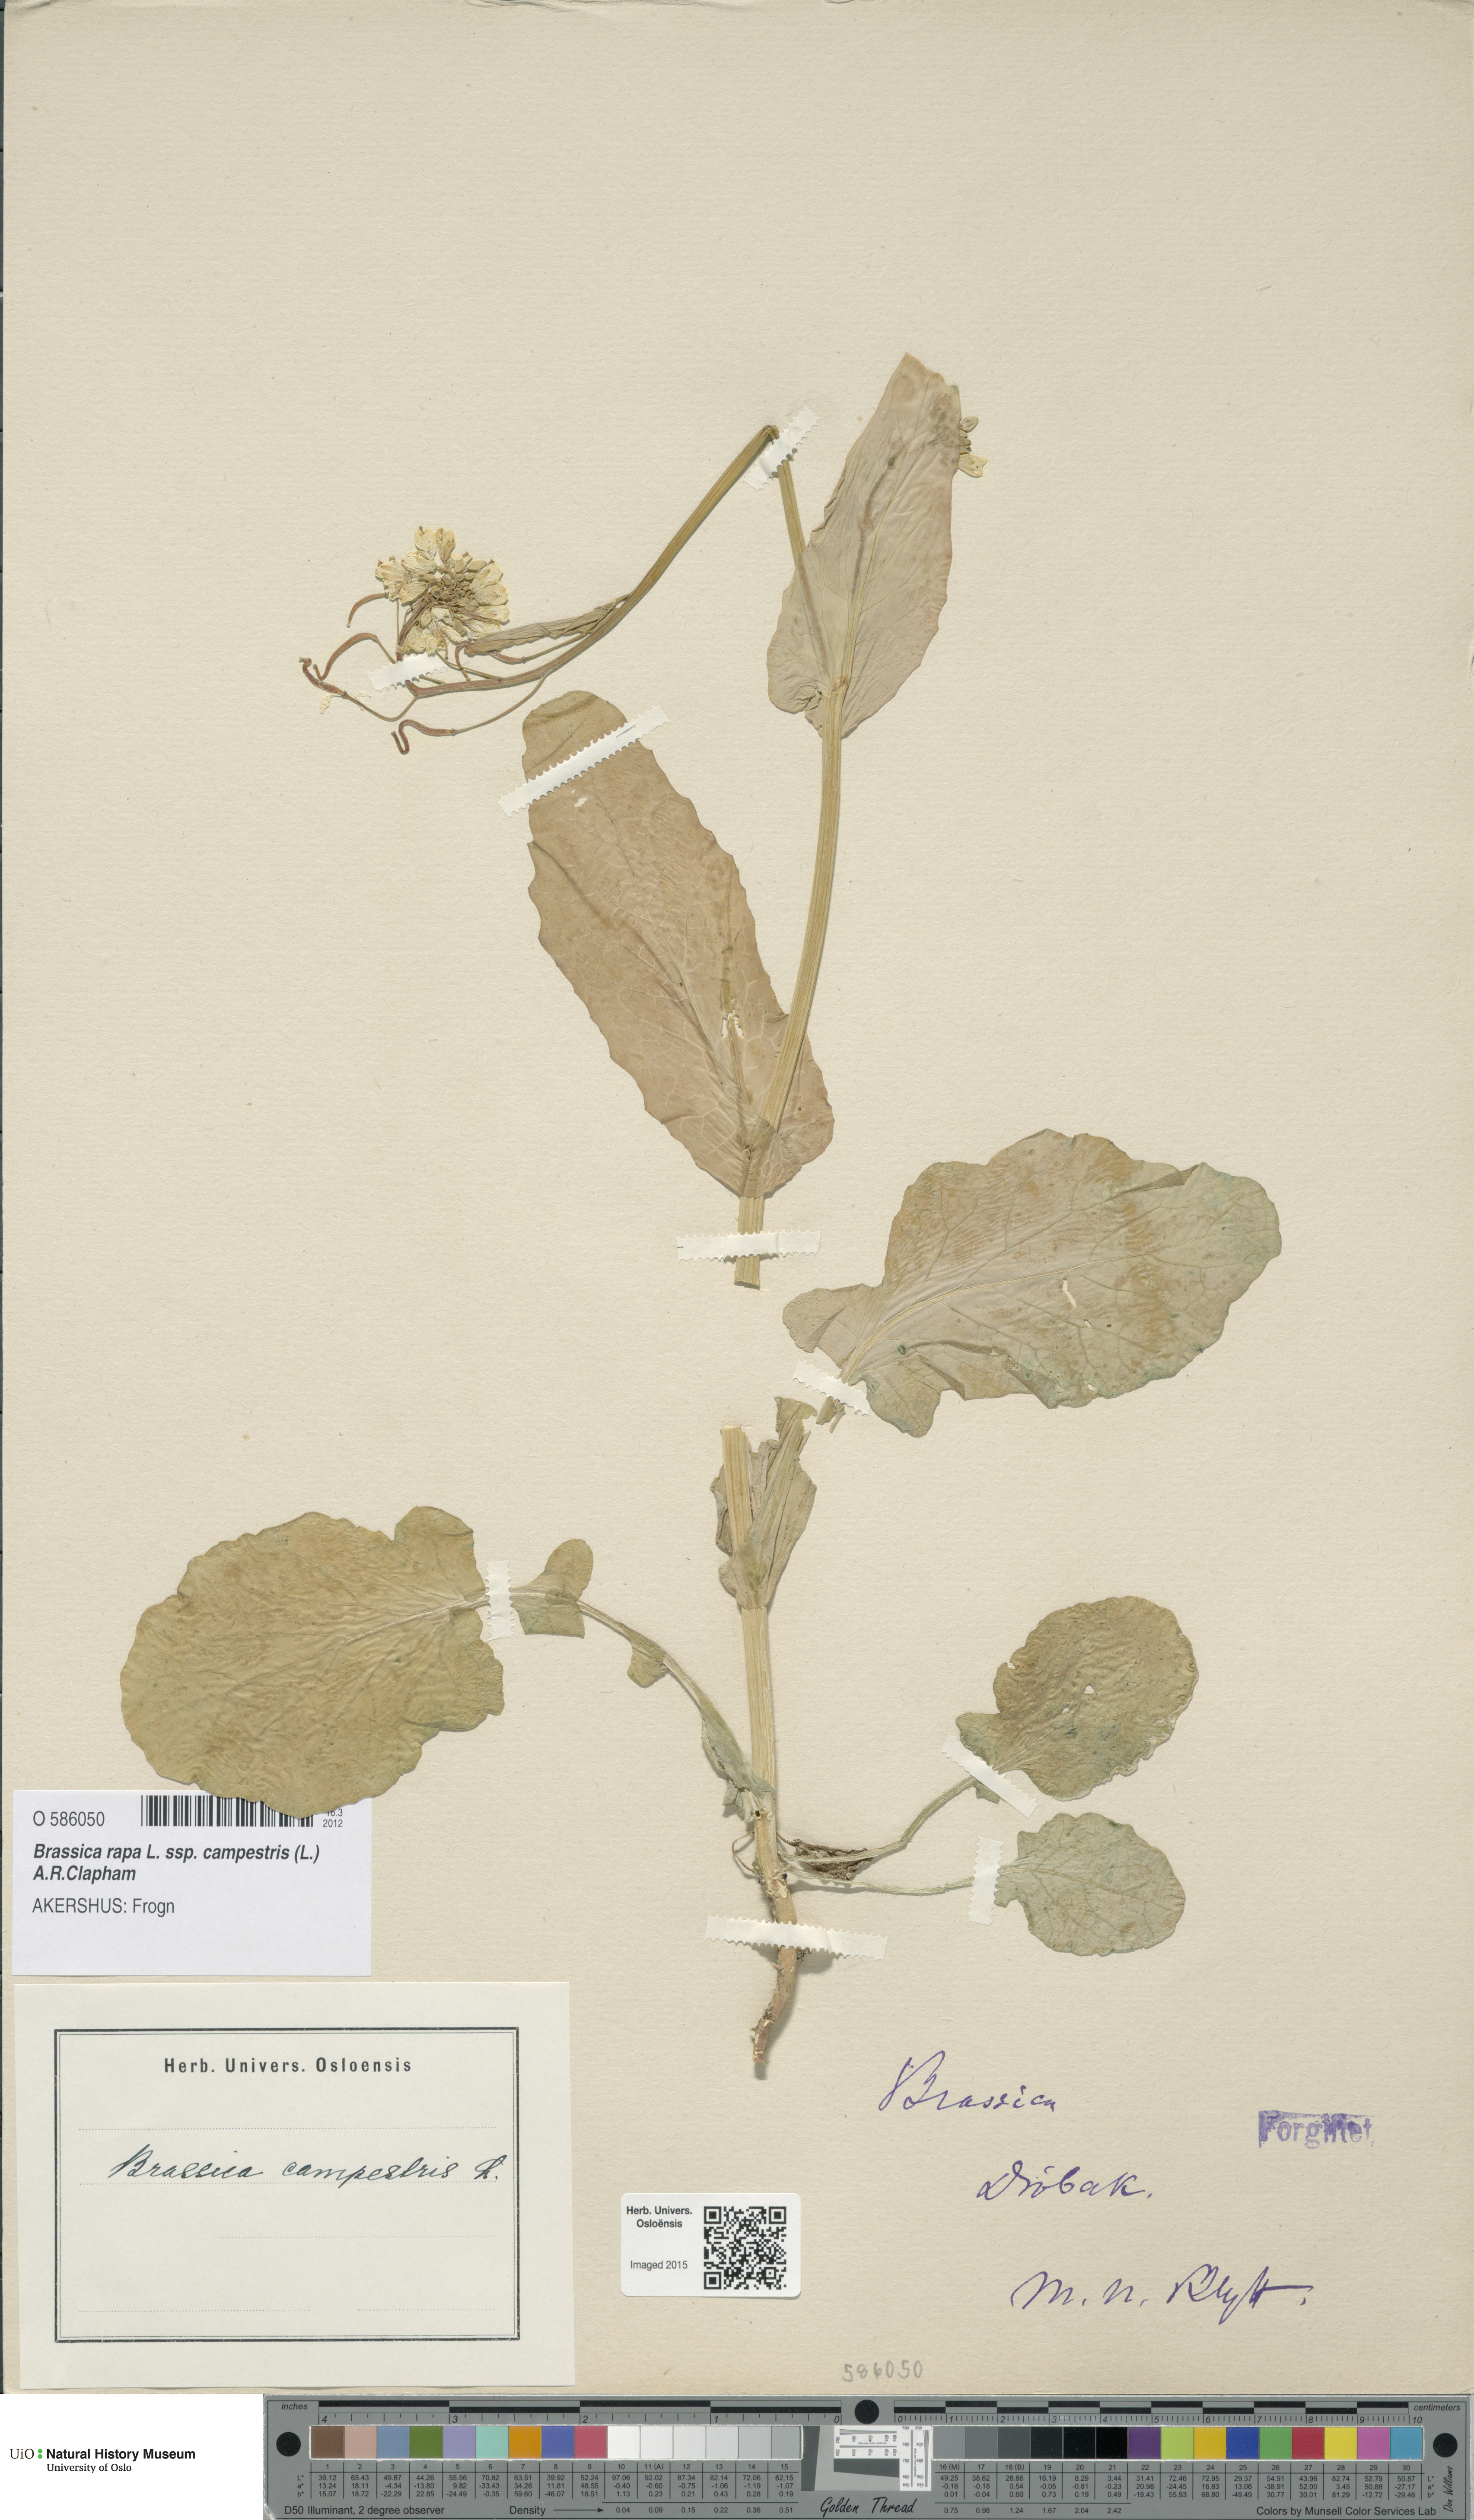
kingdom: Plantae
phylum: Tracheophyta
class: Magnoliopsida
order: Brassicales
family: Brassicaceae
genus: Brassica
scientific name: Brassica rapa
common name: Field mustard
